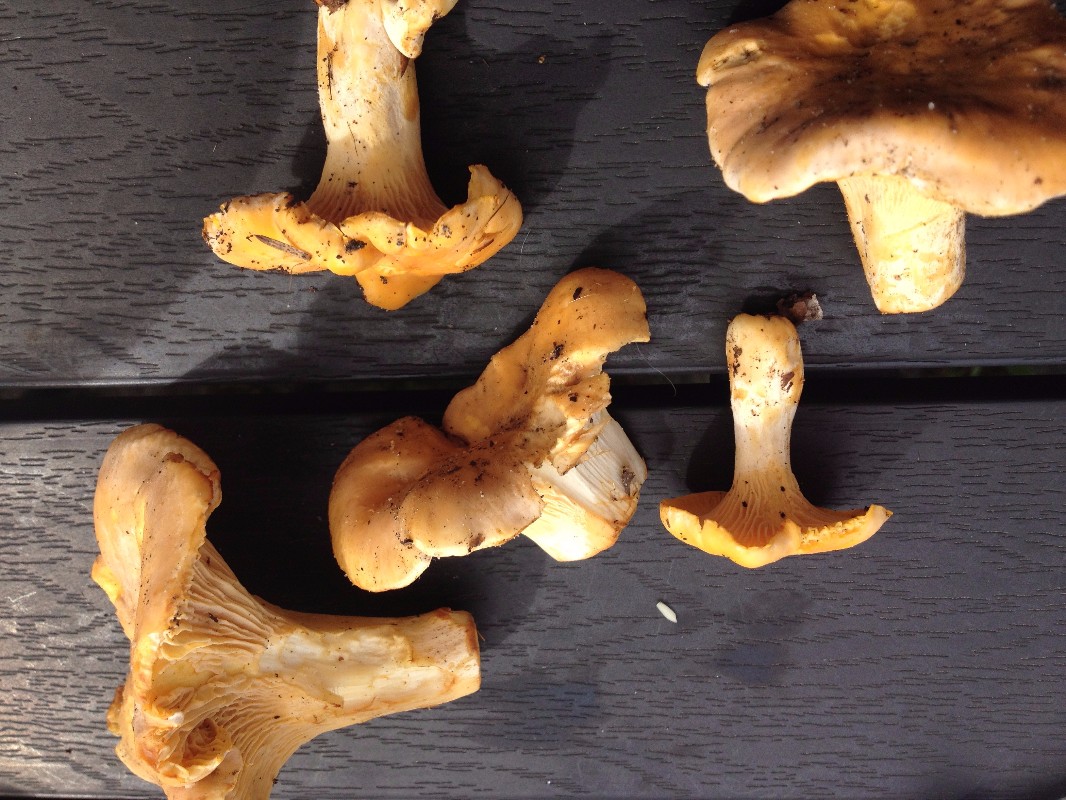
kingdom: Fungi
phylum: Basidiomycota
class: Agaricomycetes
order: Cantharellales
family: Hydnaceae
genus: Cantharellus
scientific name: Cantharellus pallens
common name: bleg kantarel
